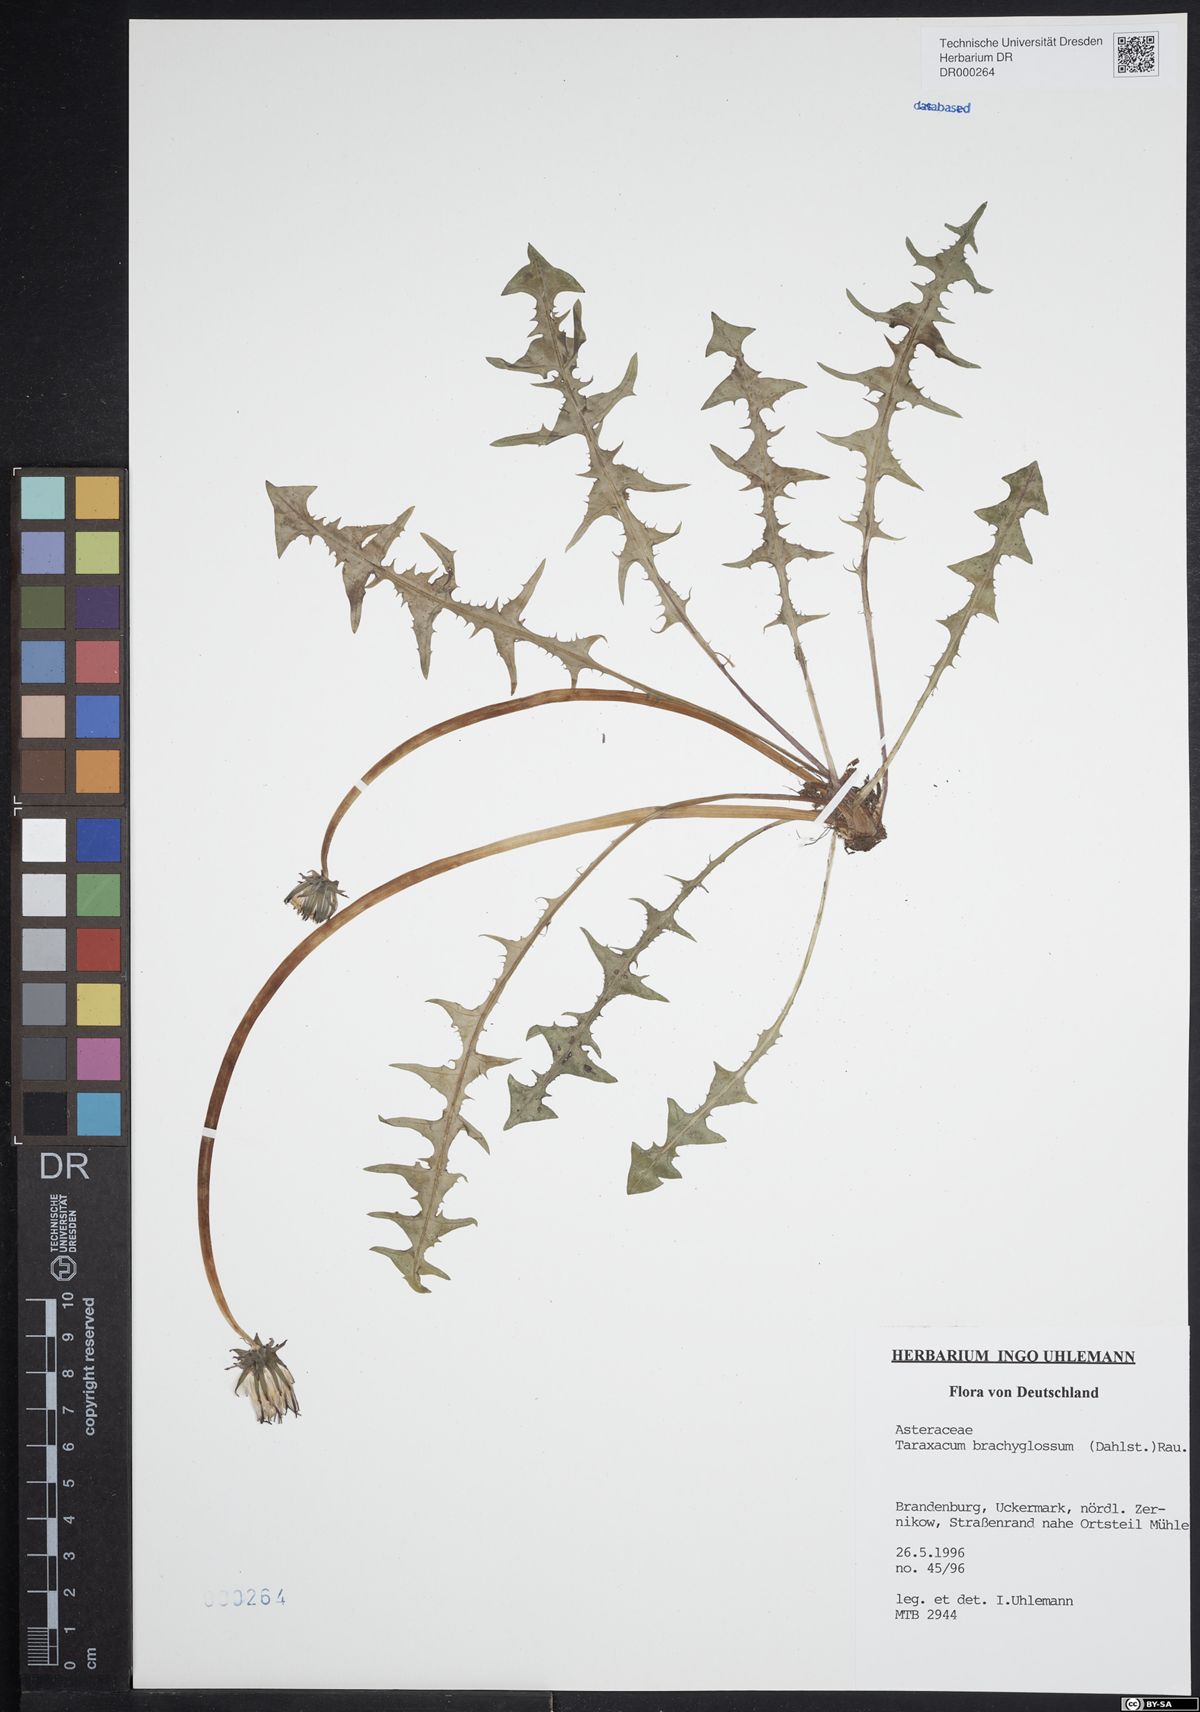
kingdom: Plantae
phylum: Tracheophyta
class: Magnoliopsida
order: Asterales
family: Asteraceae
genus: Taraxacum
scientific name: Taraxacum brachyglossum
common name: Purple-bracted dandelion
